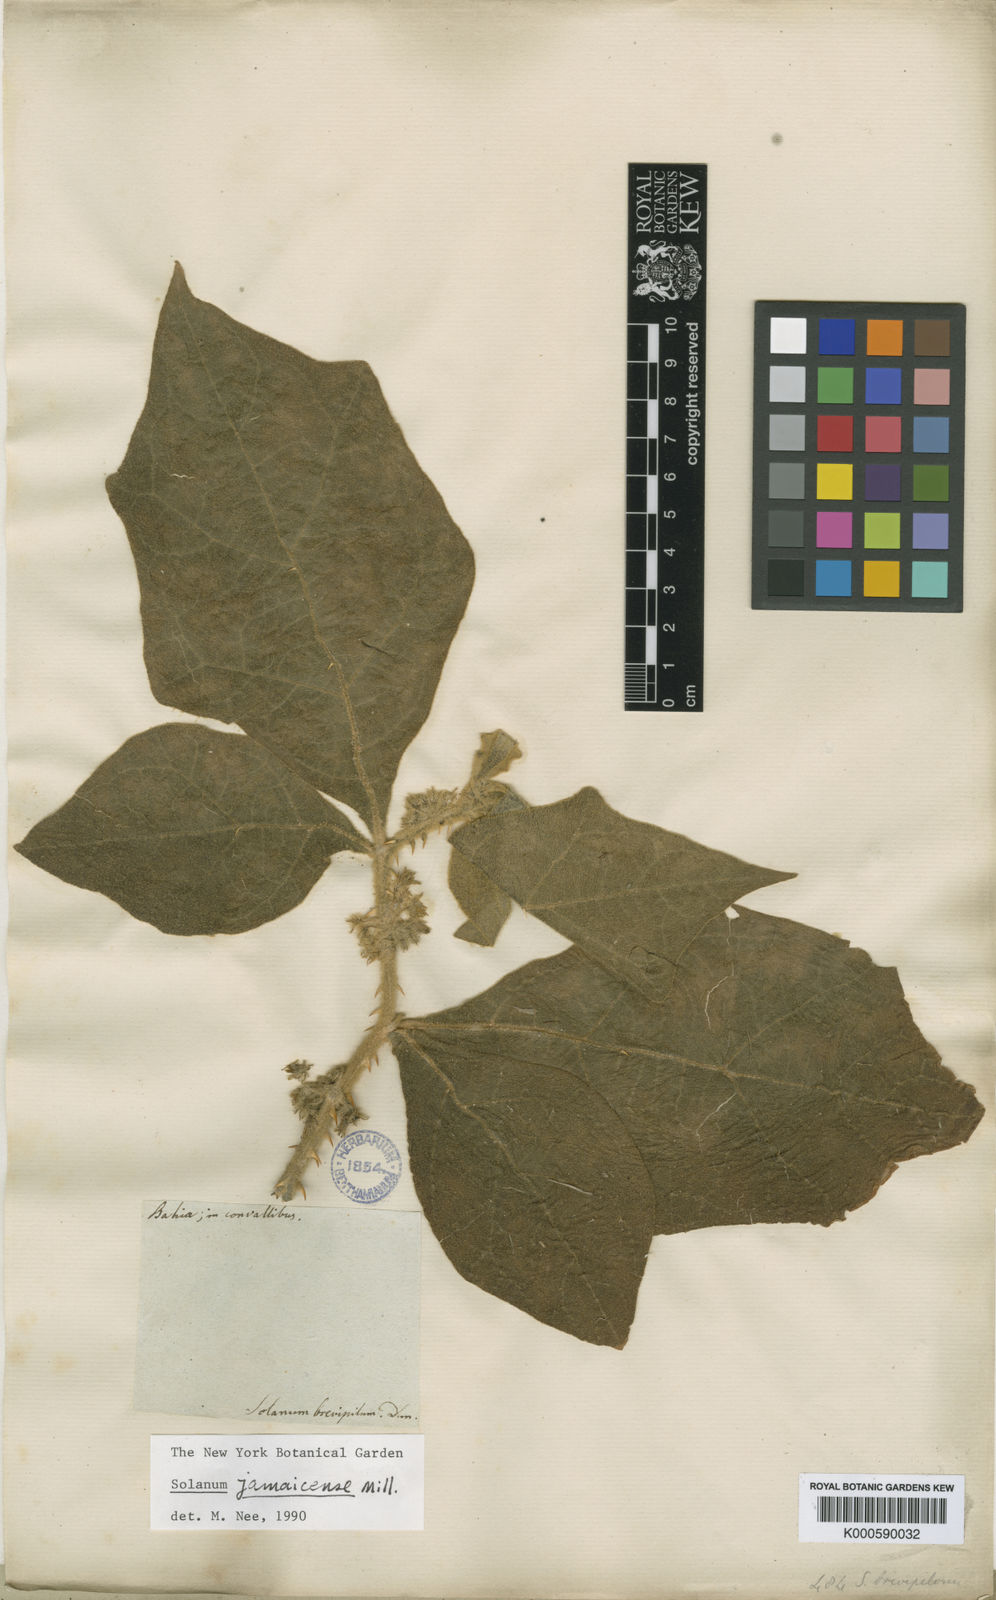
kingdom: Plantae
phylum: Tracheophyta
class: Magnoliopsida
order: Solanales
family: Solanaceae
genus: Solanum
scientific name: Solanum jamaicense
